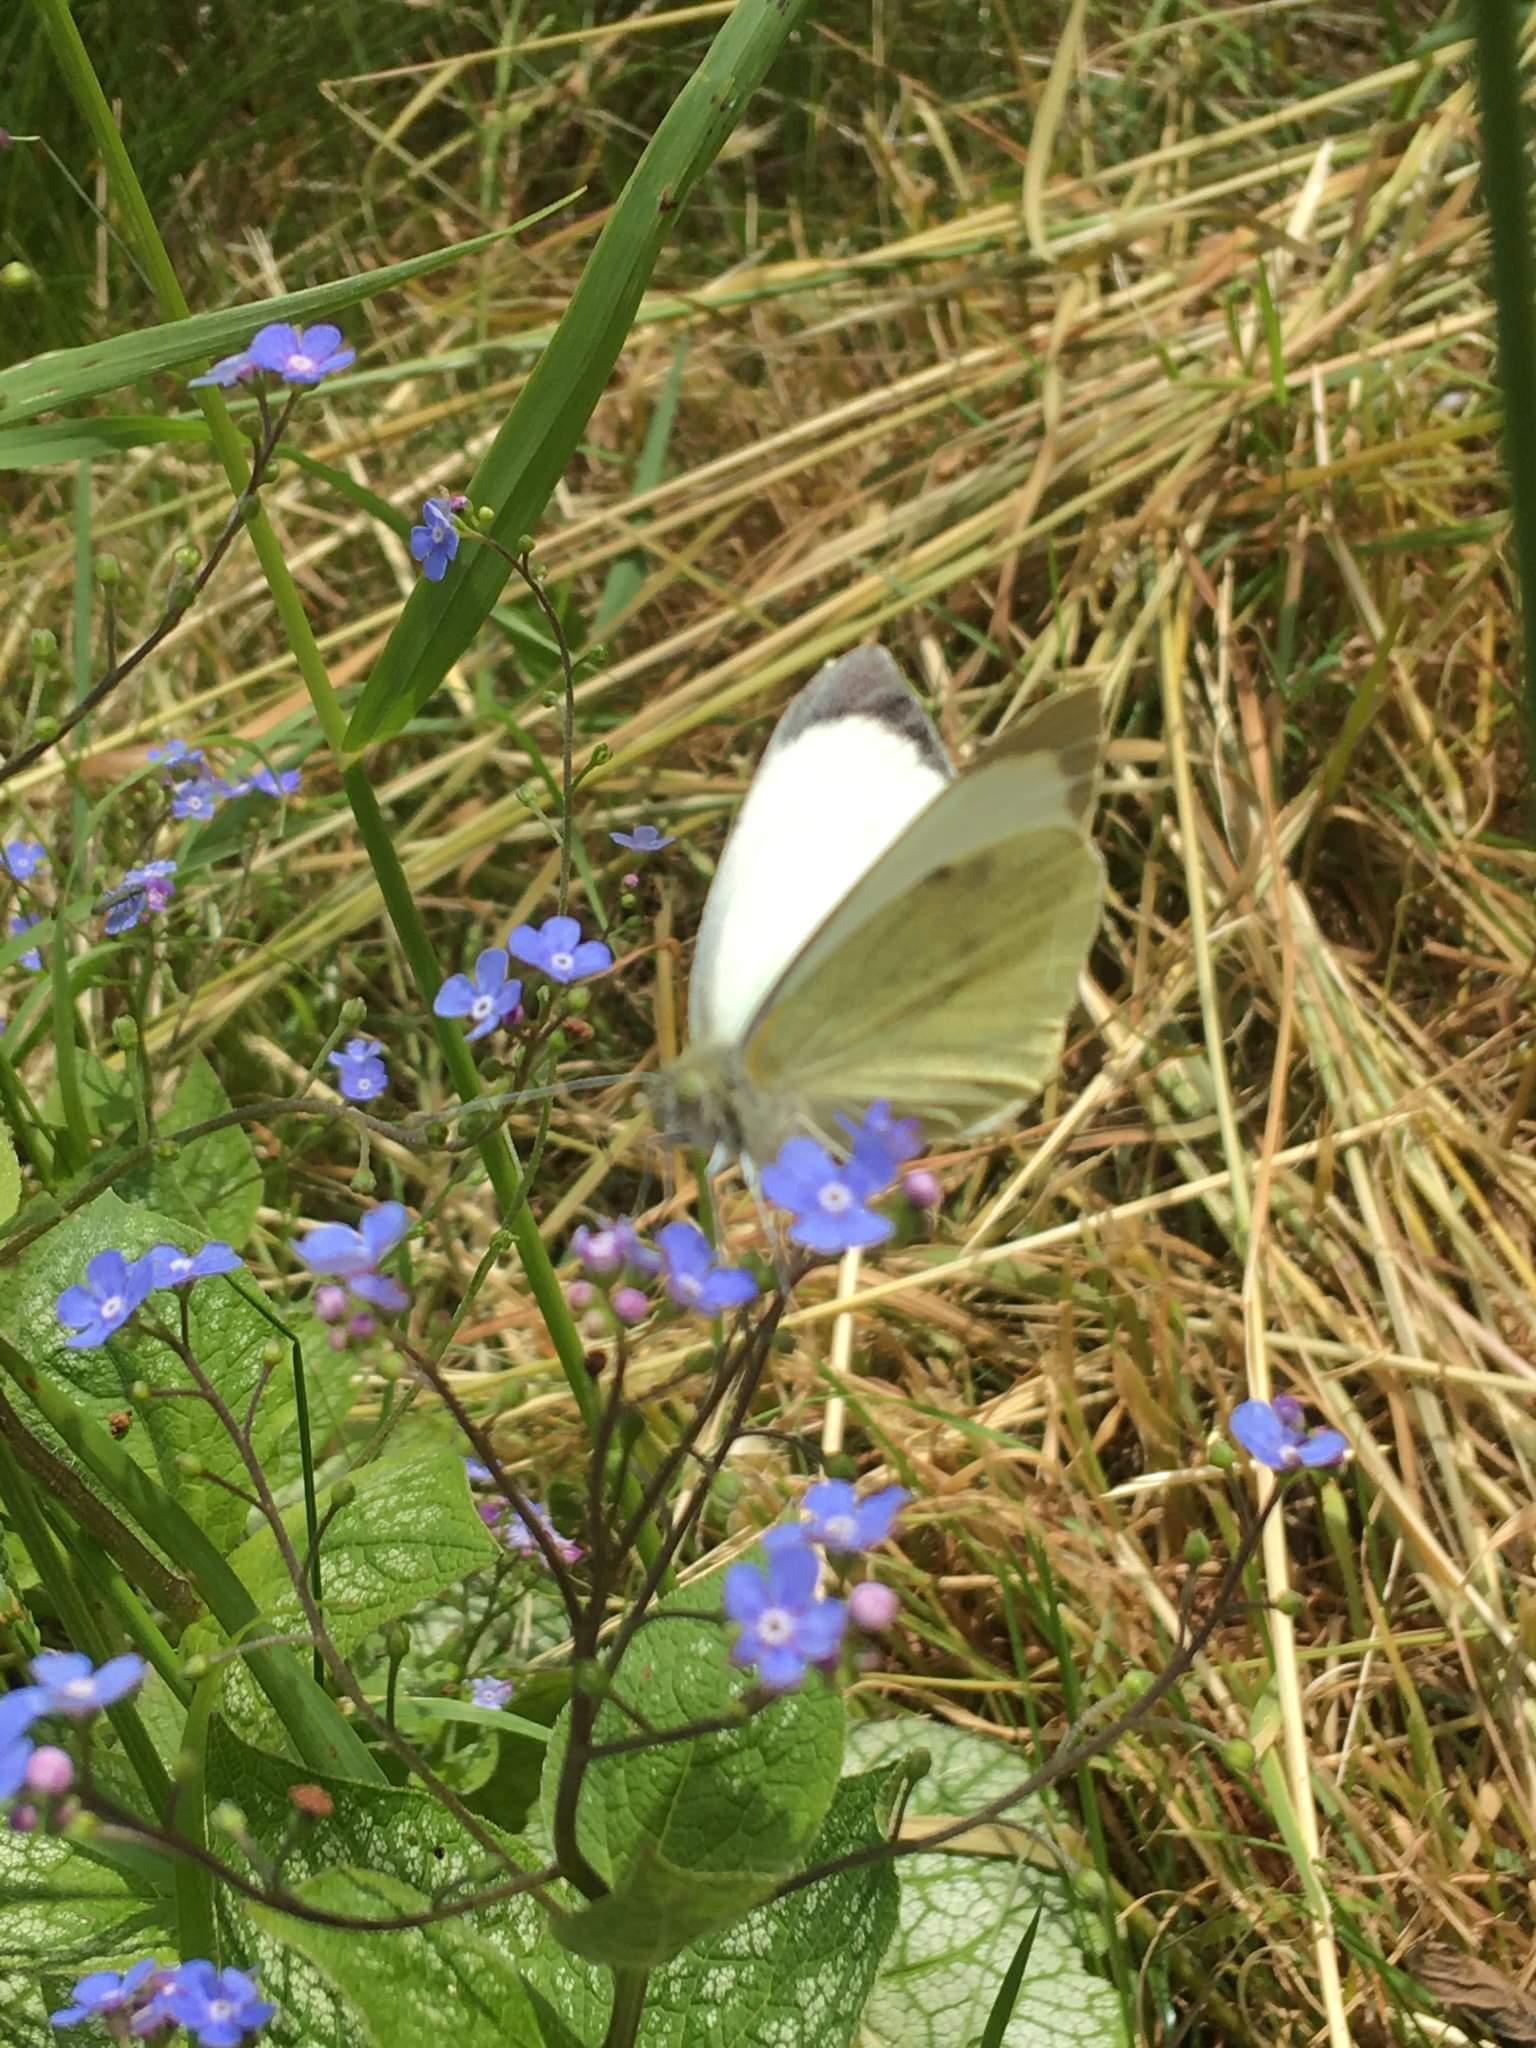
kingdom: Animalia
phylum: Arthropoda
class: Insecta
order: Lepidoptera
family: Pieridae
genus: Pieris
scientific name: Pieris brassicae
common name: Stor kålsommerfugl
